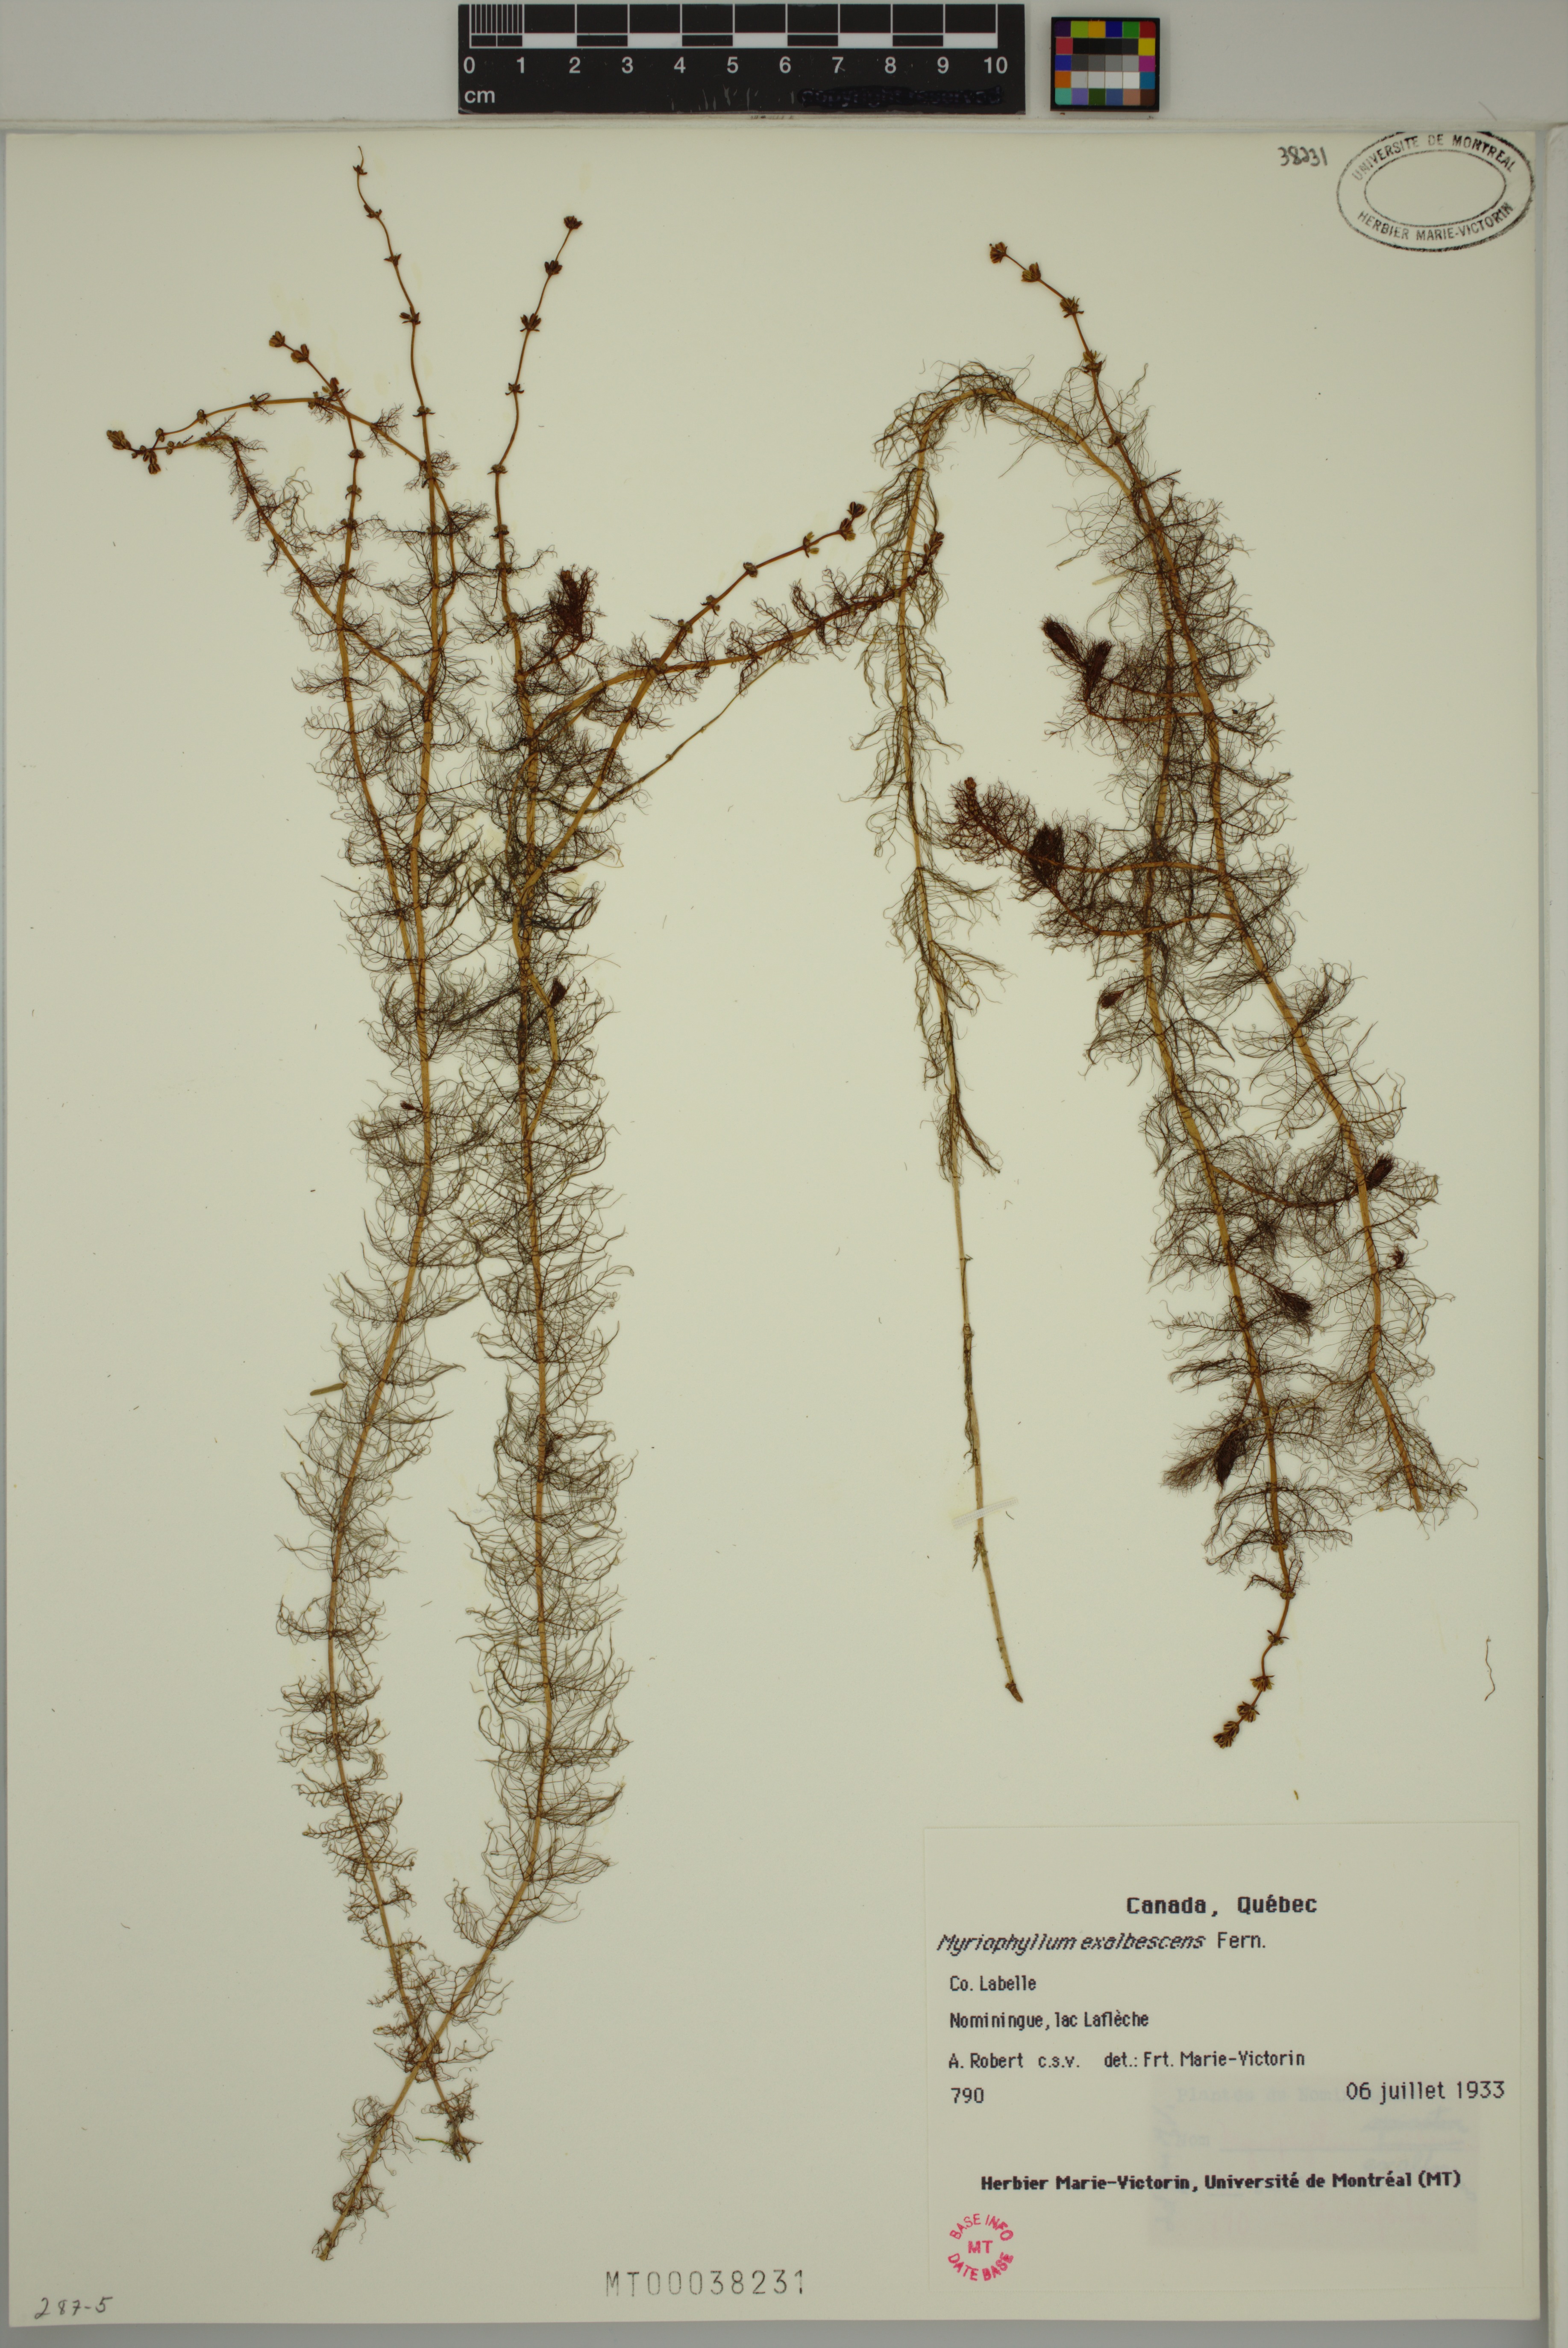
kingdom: Plantae
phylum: Tracheophyta
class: Magnoliopsida
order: Saxifragales
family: Haloragaceae
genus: Myriophyllum
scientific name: Myriophyllum sibiricum
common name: Siberian water-milfoil
